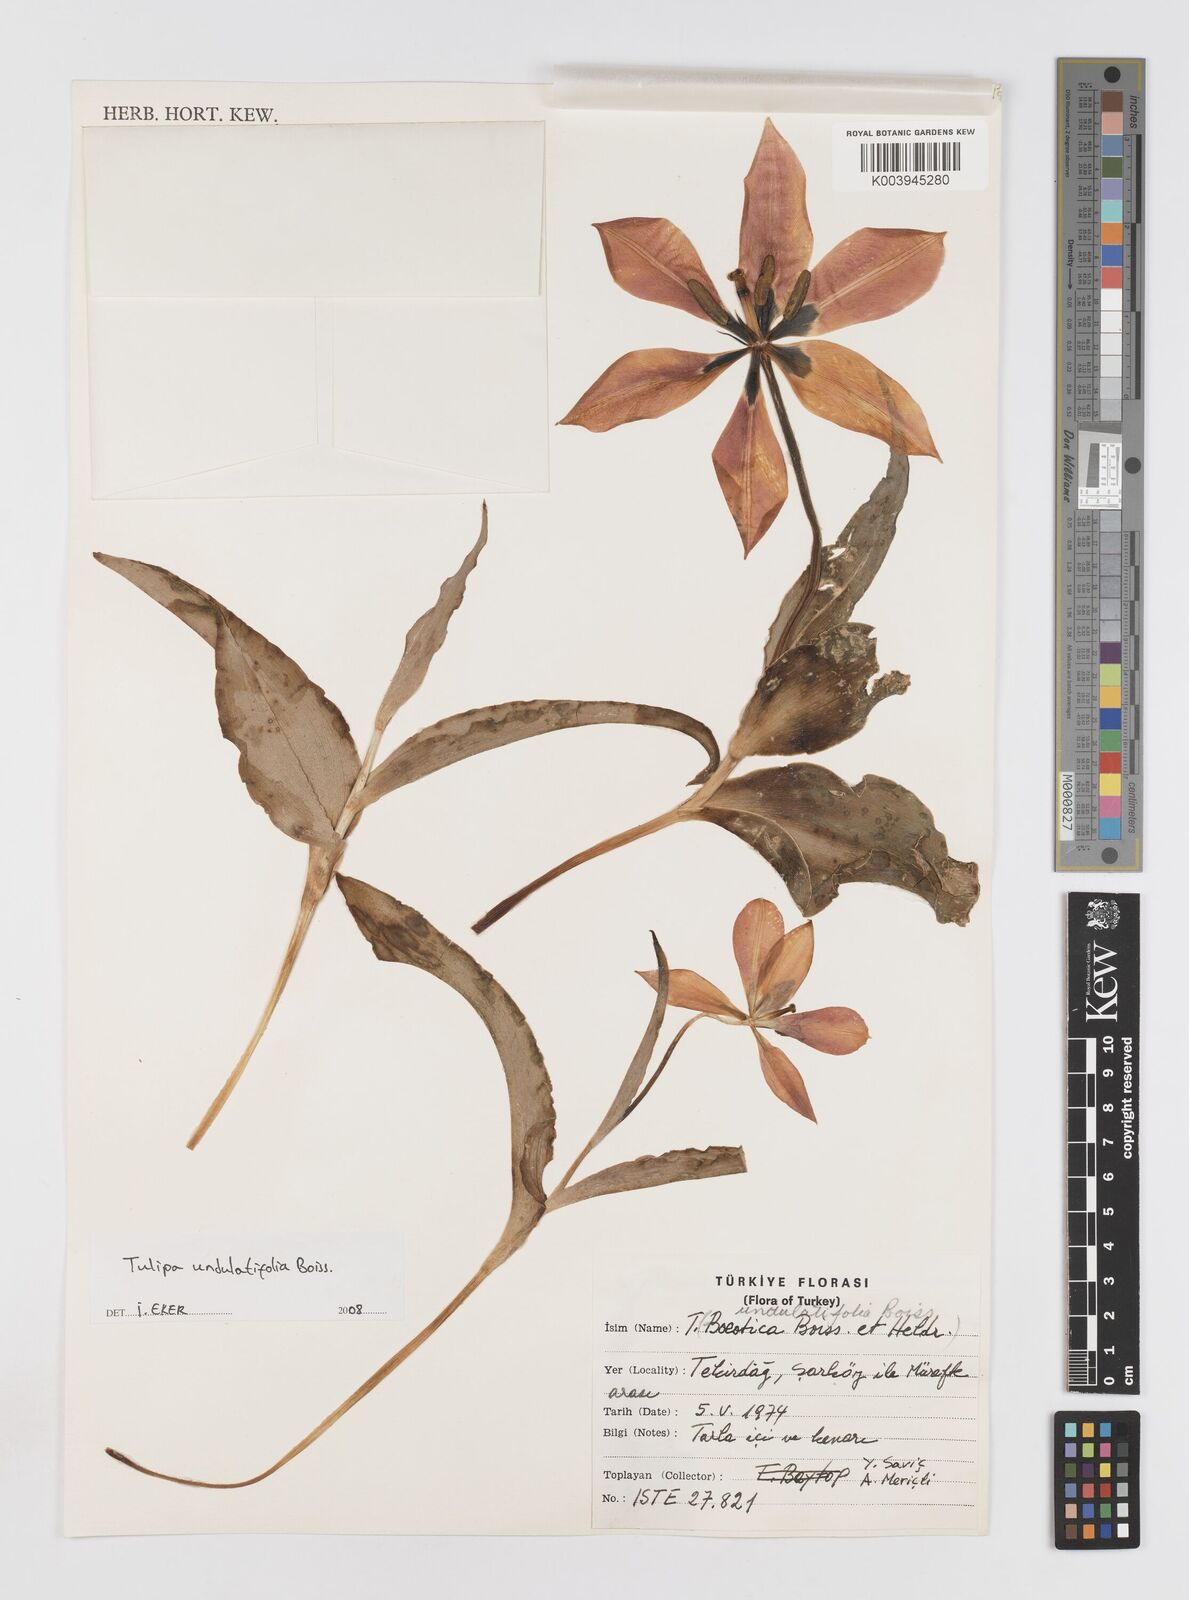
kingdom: Plantae
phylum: Tracheophyta
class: Liliopsida
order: Liliales
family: Liliaceae
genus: Tulipa
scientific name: Tulipa undulatifolia
